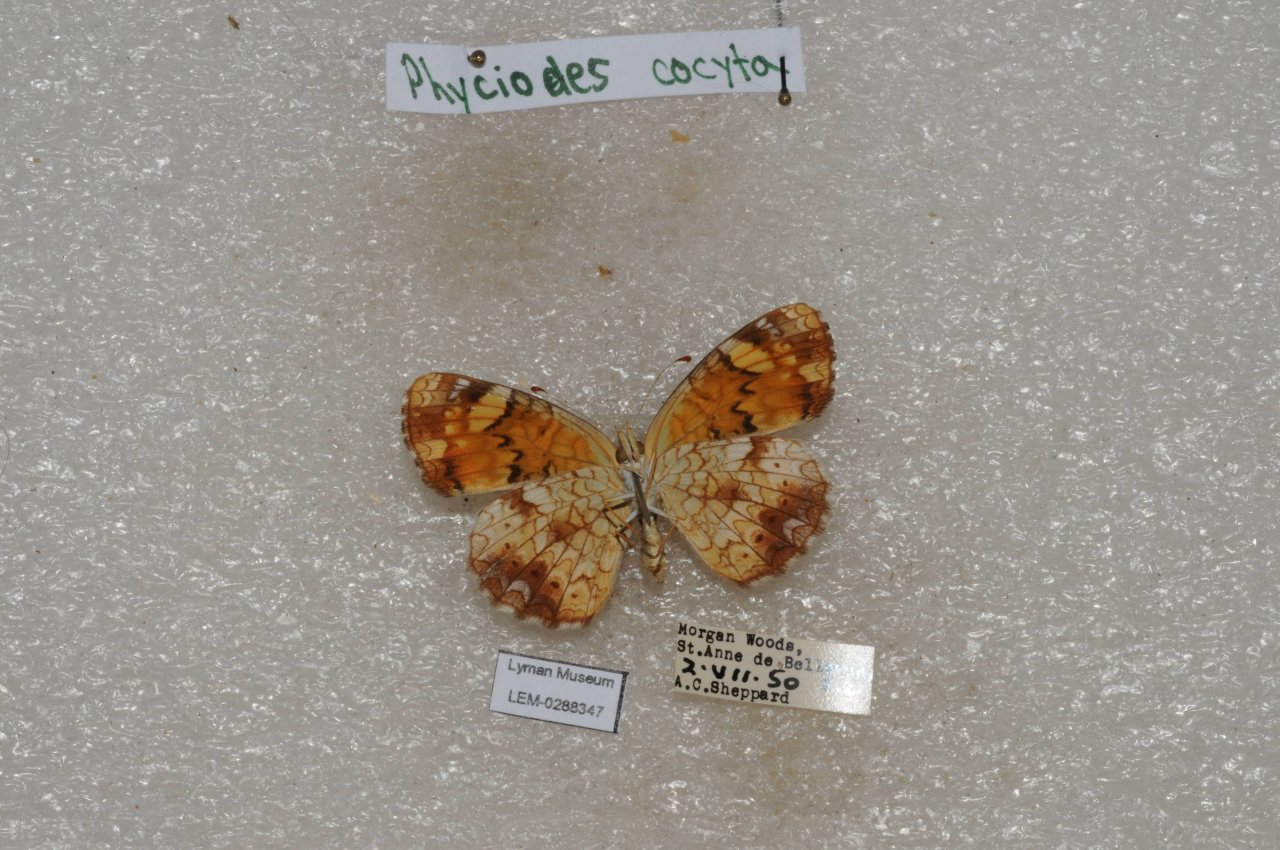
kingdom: Animalia
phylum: Arthropoda
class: Insecta
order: Lepidoptera
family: Nymphalidae
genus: Phyciodes
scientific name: Phyciodes tharos
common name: Northern Crescent
